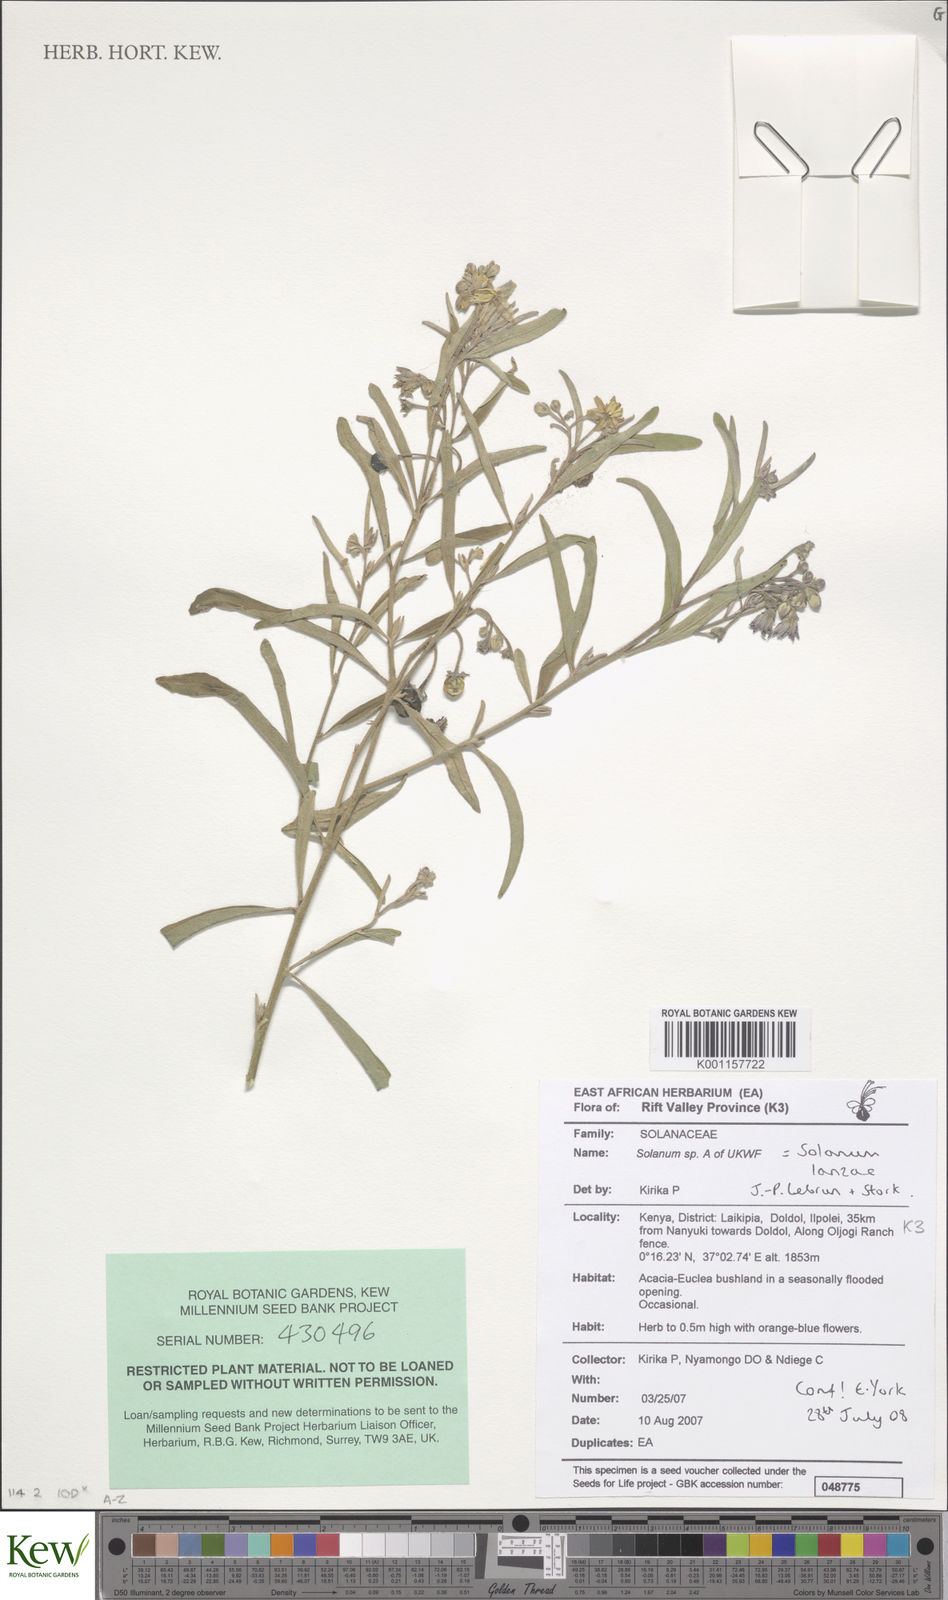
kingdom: Plantae
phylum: Tracheophyta
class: Magnoliopsida
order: Solanales
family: Solanaceae
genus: Solanum
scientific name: Solanum lanzae
